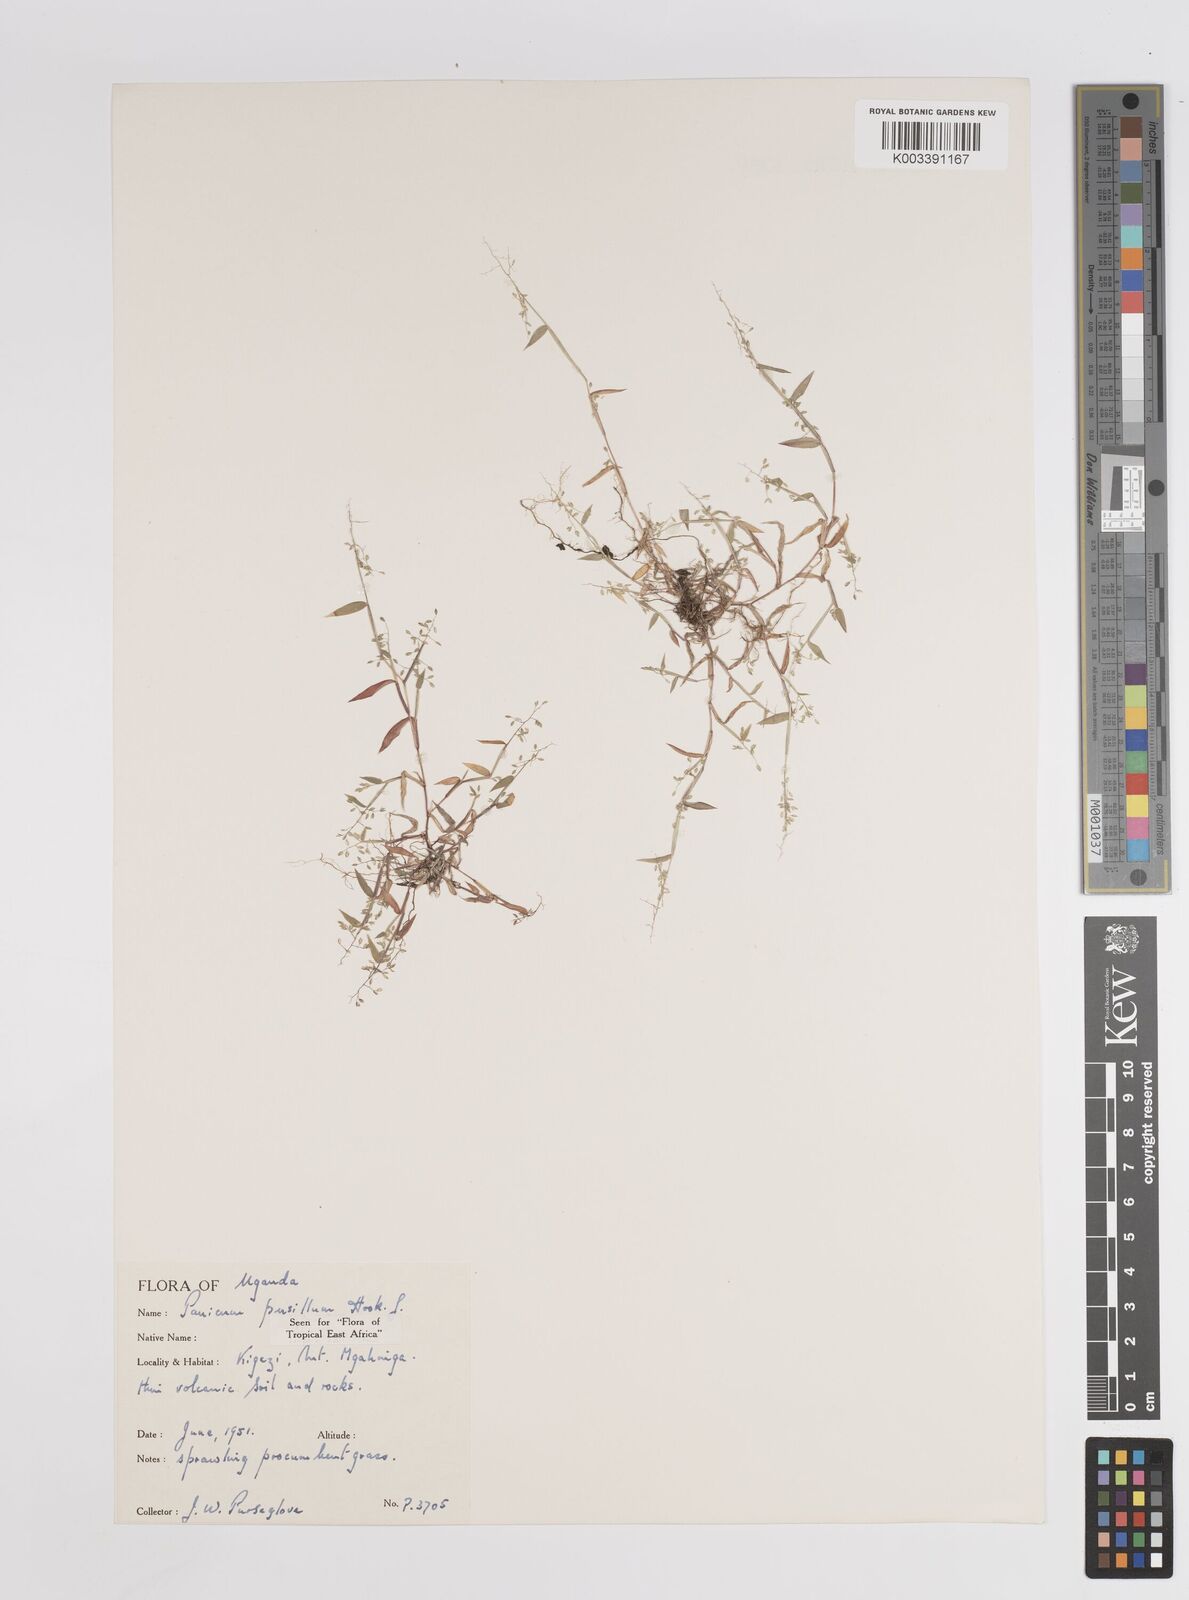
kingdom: Plantae
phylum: Tracheophyta
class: Liliopsida
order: Poales
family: Poaceae
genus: Panicum
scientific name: Panicum pusillum
